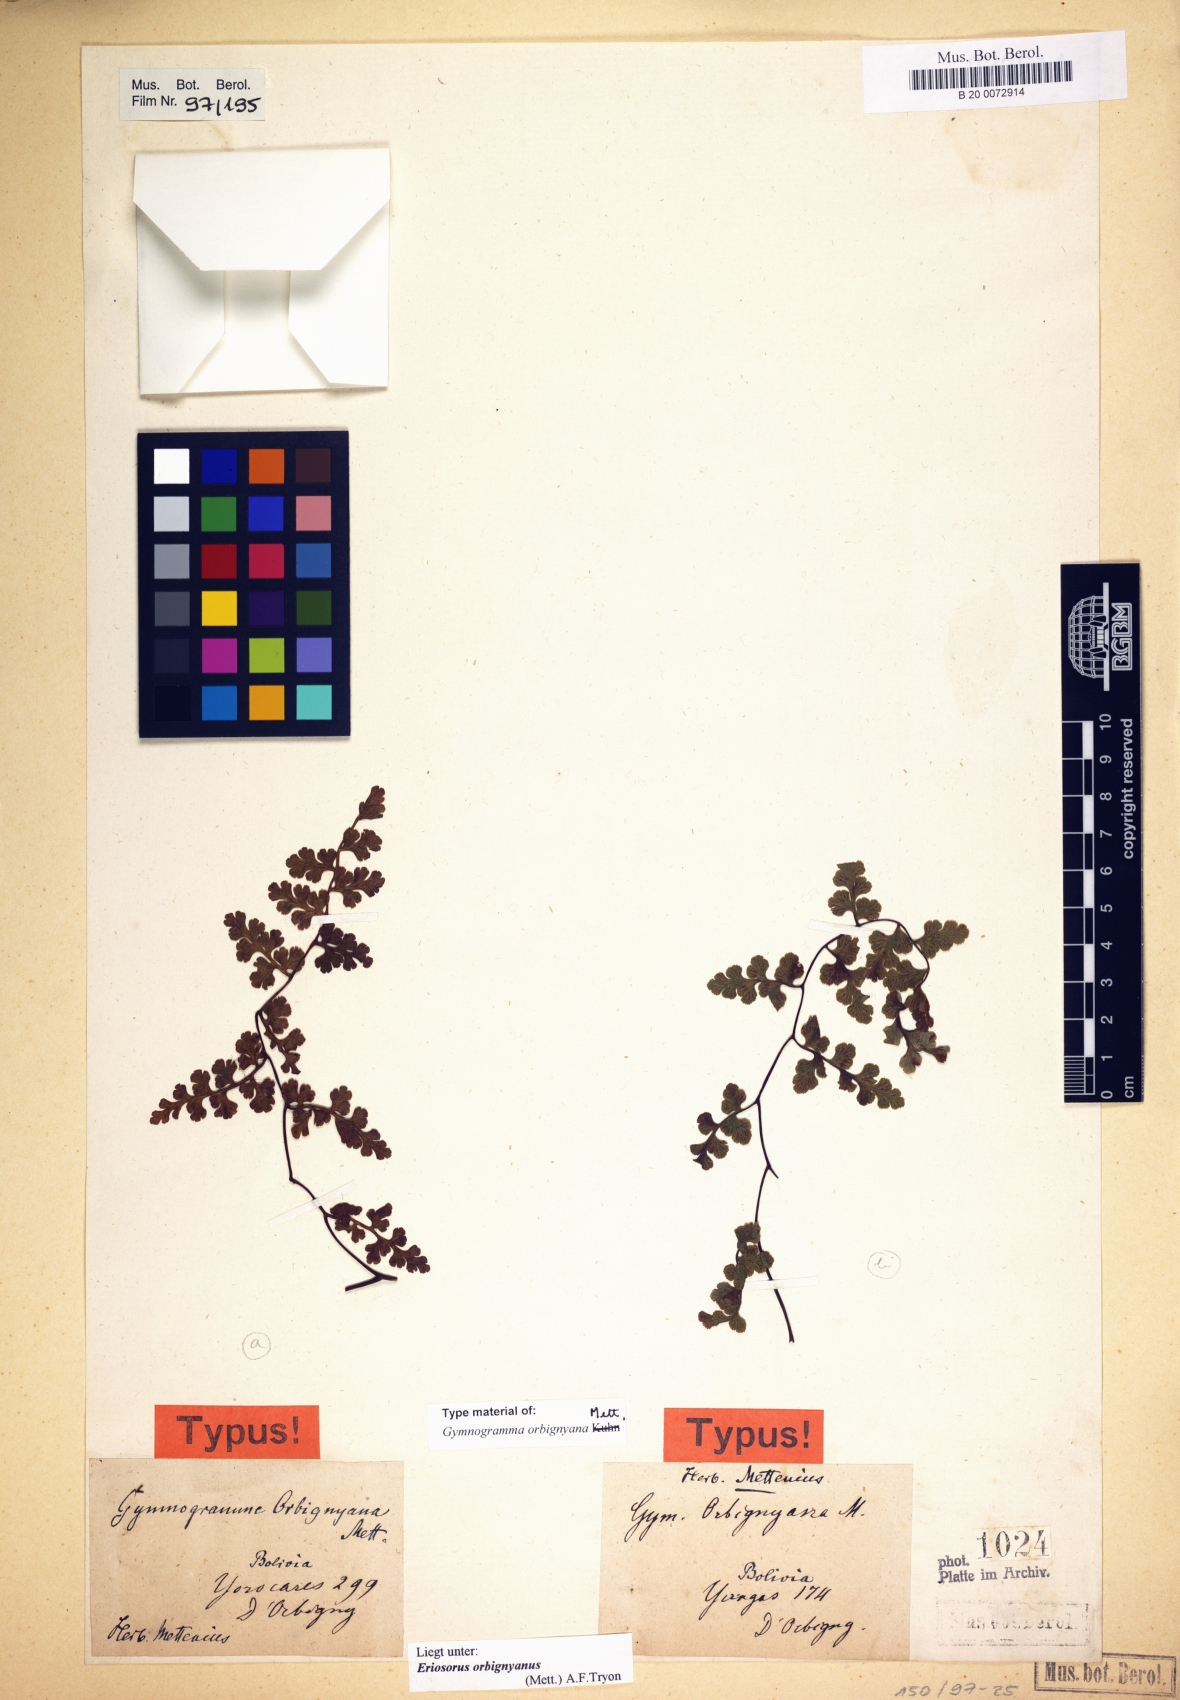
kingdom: Plantae
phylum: Tracheophyta
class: Polypodiopsida
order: Polypodiales
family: Pteridaceae
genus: Jamesonia
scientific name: Jamesonia orbignyana
